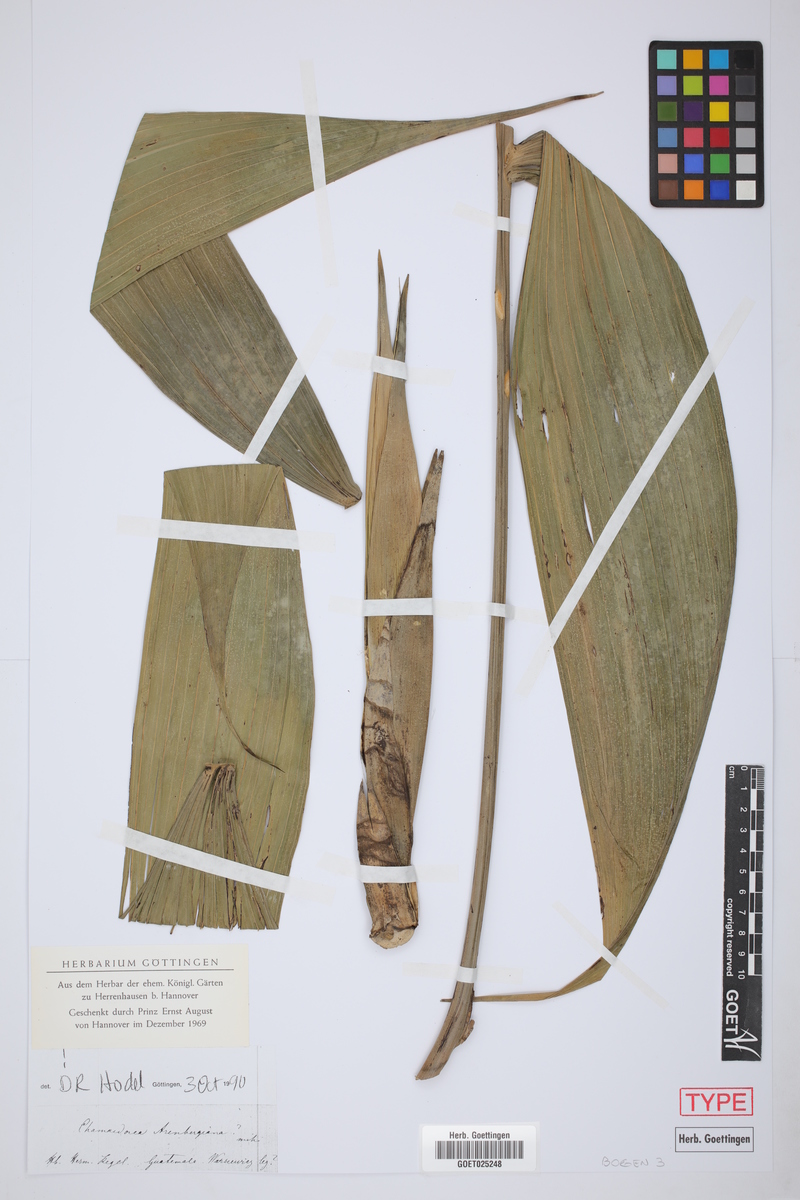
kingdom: Plantae
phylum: Tracheophyta
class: Liliopsida
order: Arecales
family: Arecaceae
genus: Chamaedorea
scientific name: Chamaedorea arenbergiana
